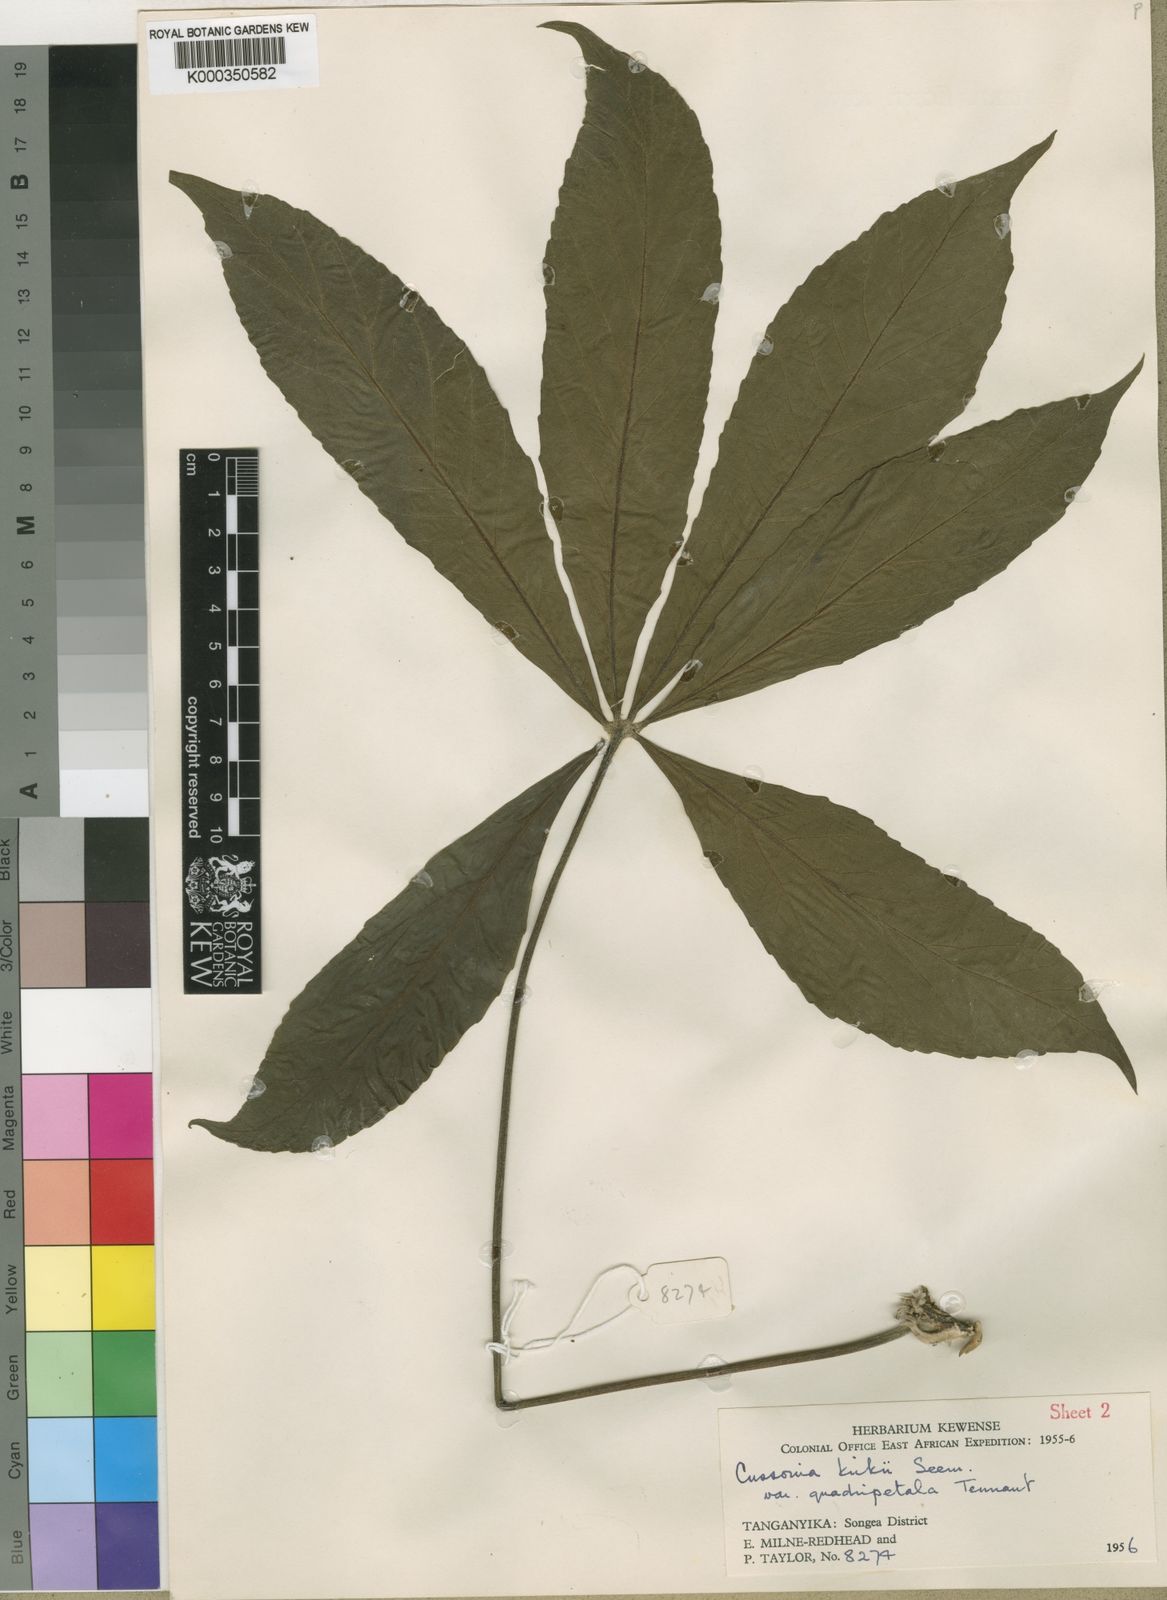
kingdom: Plantae
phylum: Tracheophyta
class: Magnoliopsida
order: Apiales
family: Araliaceae
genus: Cussonia
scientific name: Cussonia arborea
